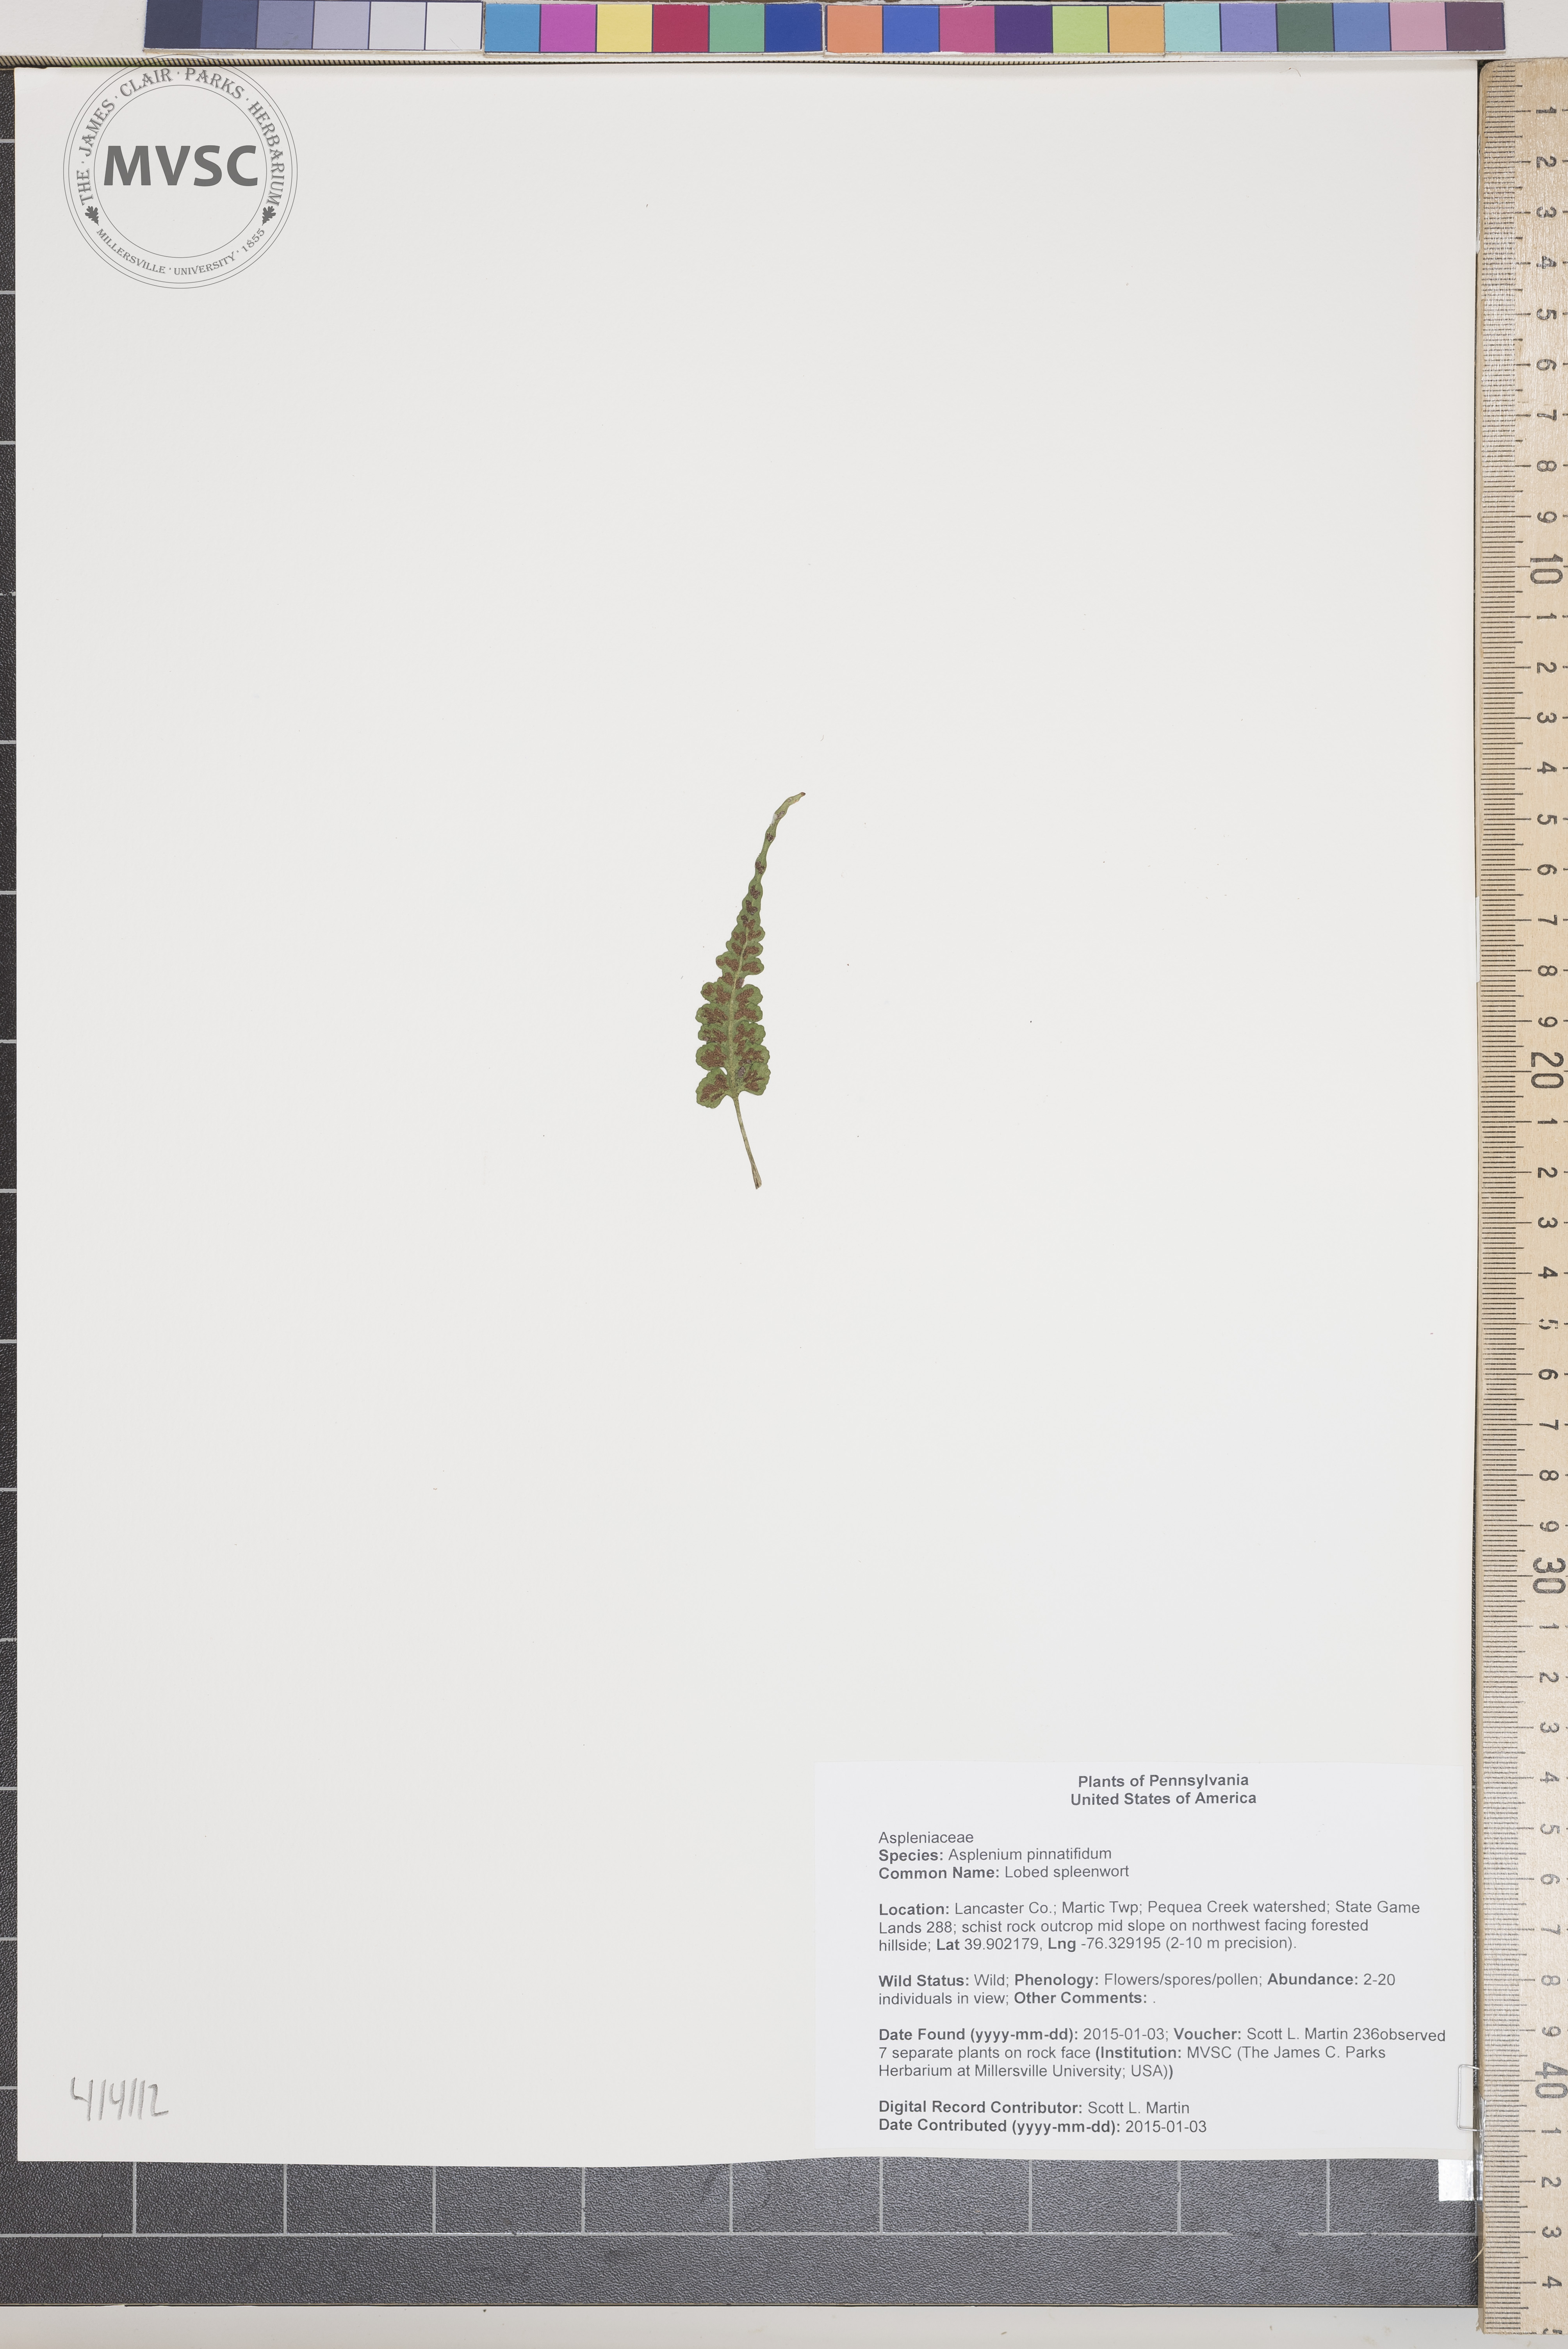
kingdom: Plantae
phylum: Tracheophyta
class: Polypodiopsida
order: Polypodiales
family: Aspleniaceae
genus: Asplenium
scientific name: Asplenium pinnatifidum
